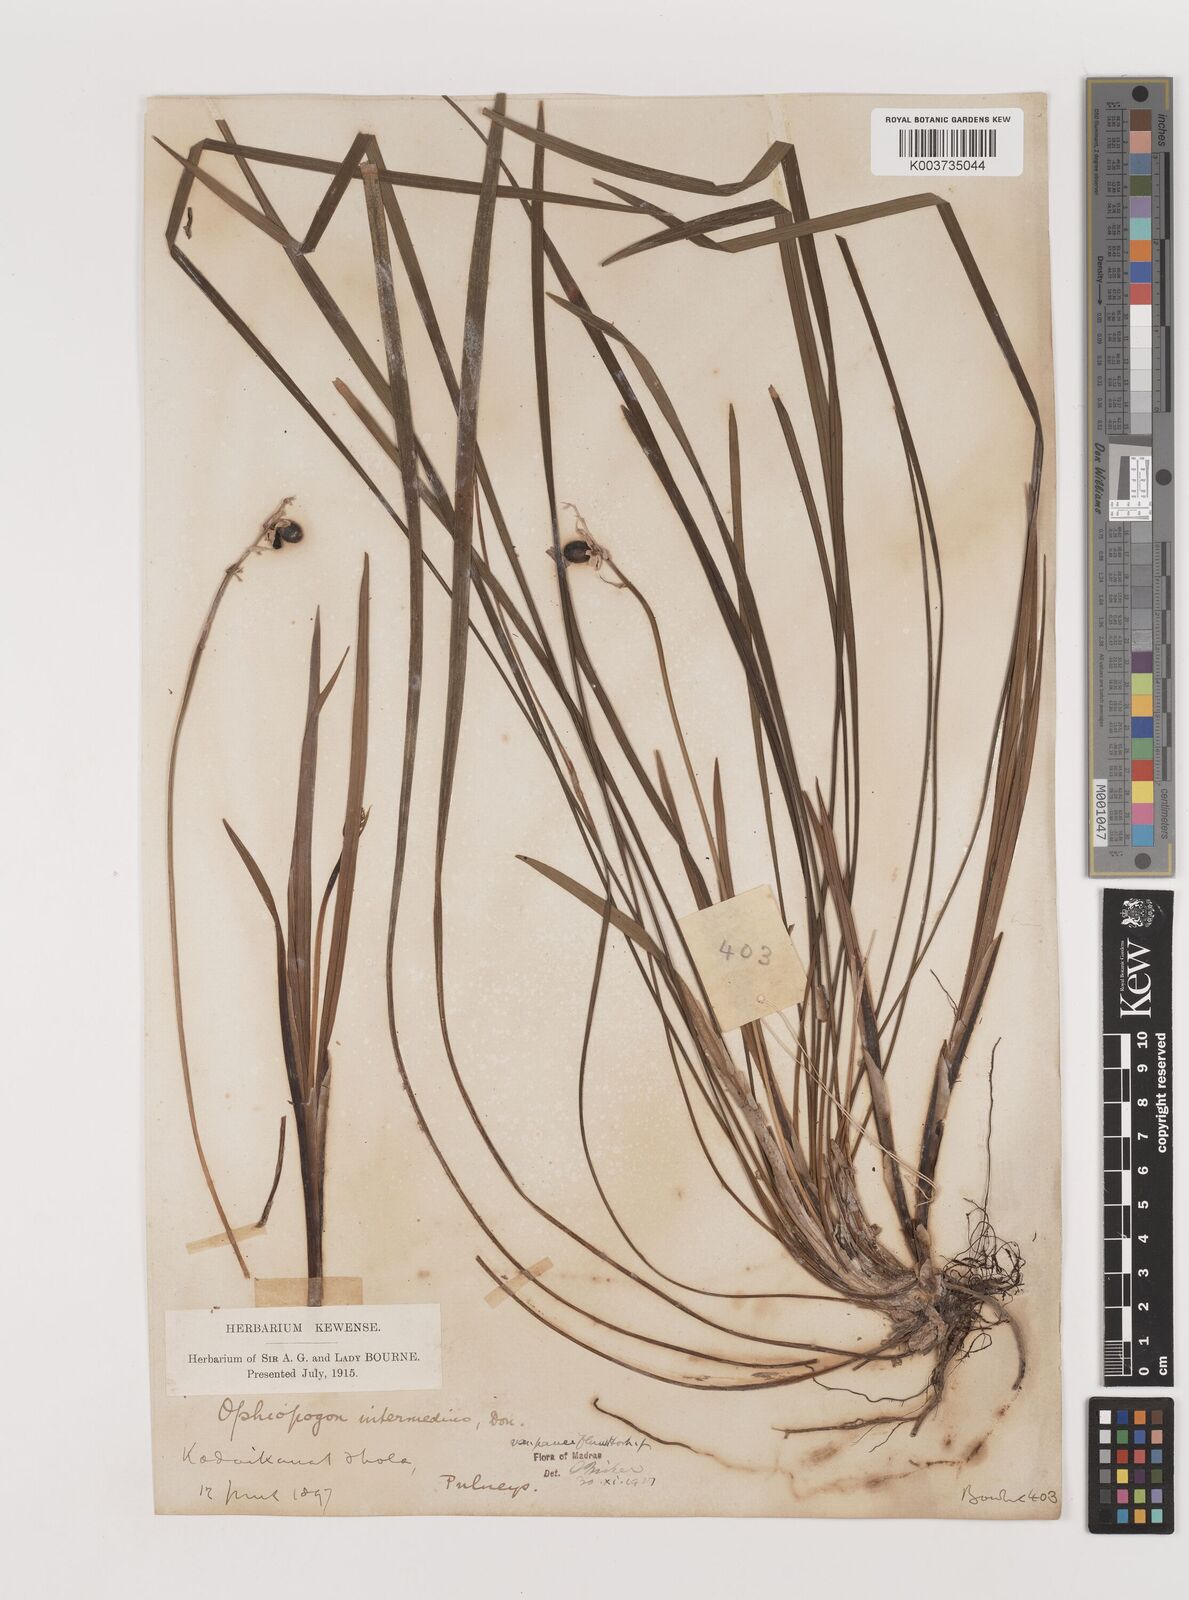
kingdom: Plantae
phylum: Tracheophyta
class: Liliopsida
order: Asparagales
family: Asparagaceae
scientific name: Asparagaceae
